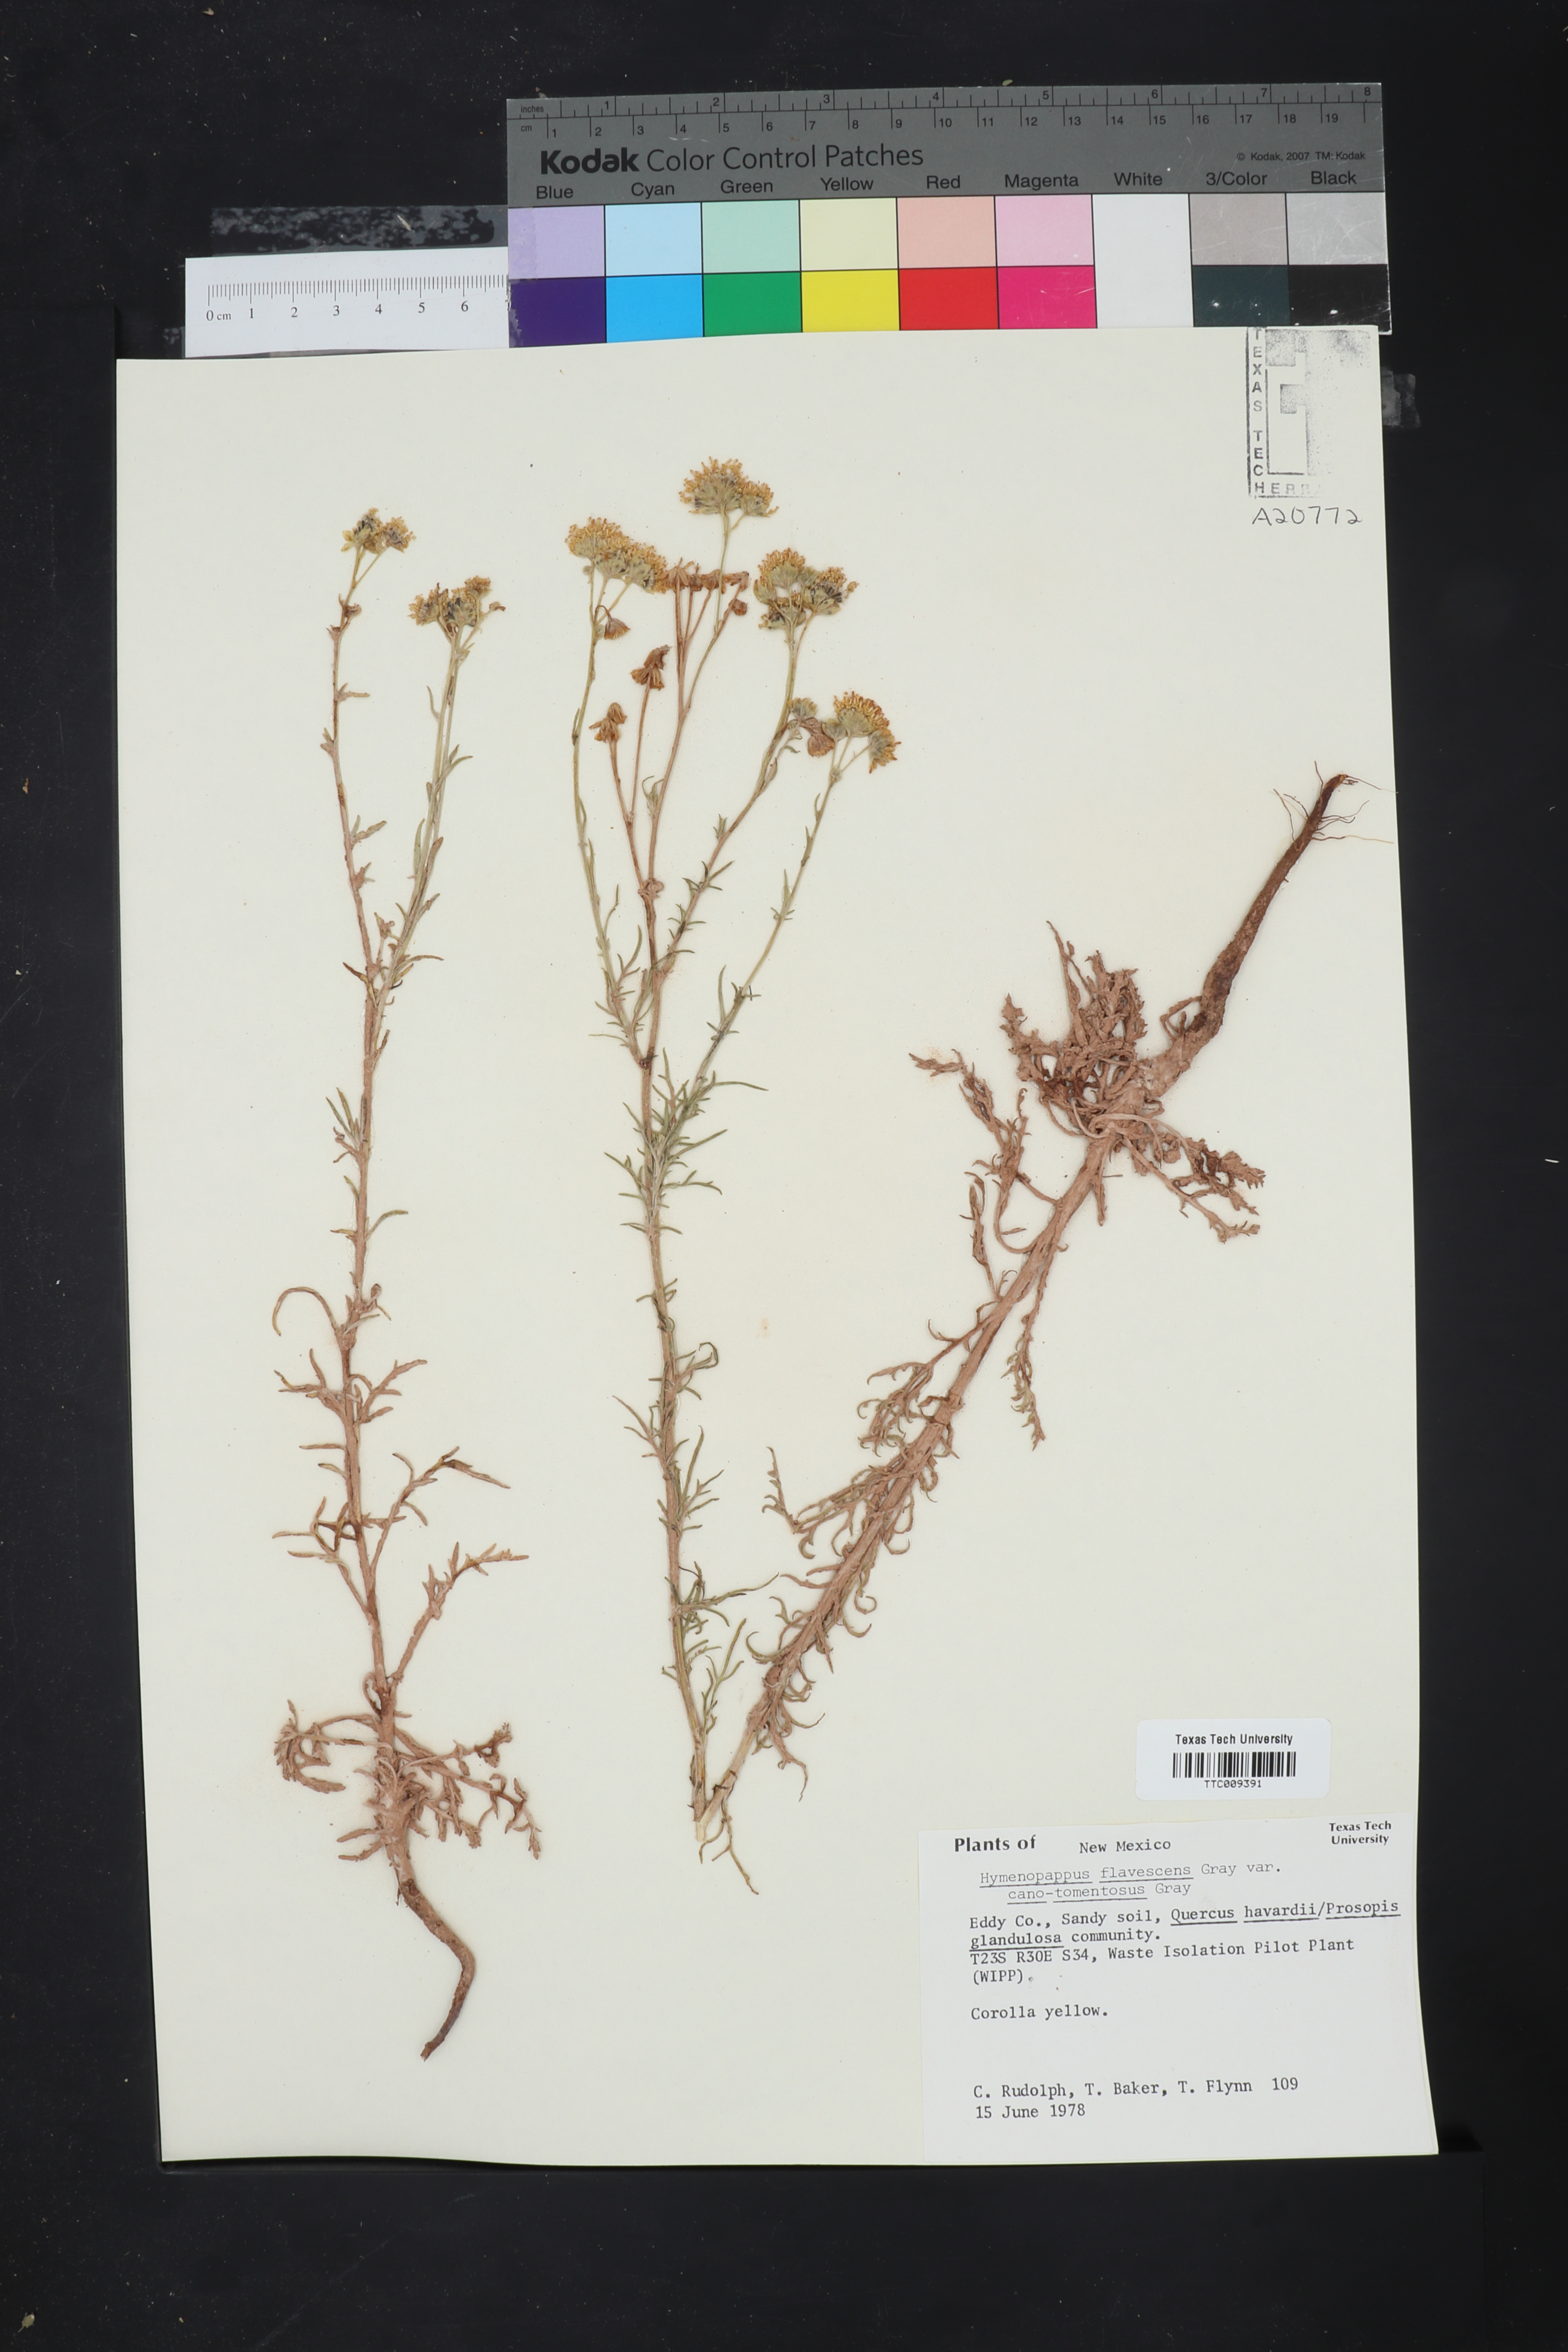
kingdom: Plantae
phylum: Tracheophyta
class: Magnoliopsida
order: Asterales
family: Asteraceae
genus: Hymenopappus
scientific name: Hymenopappus flavescens
